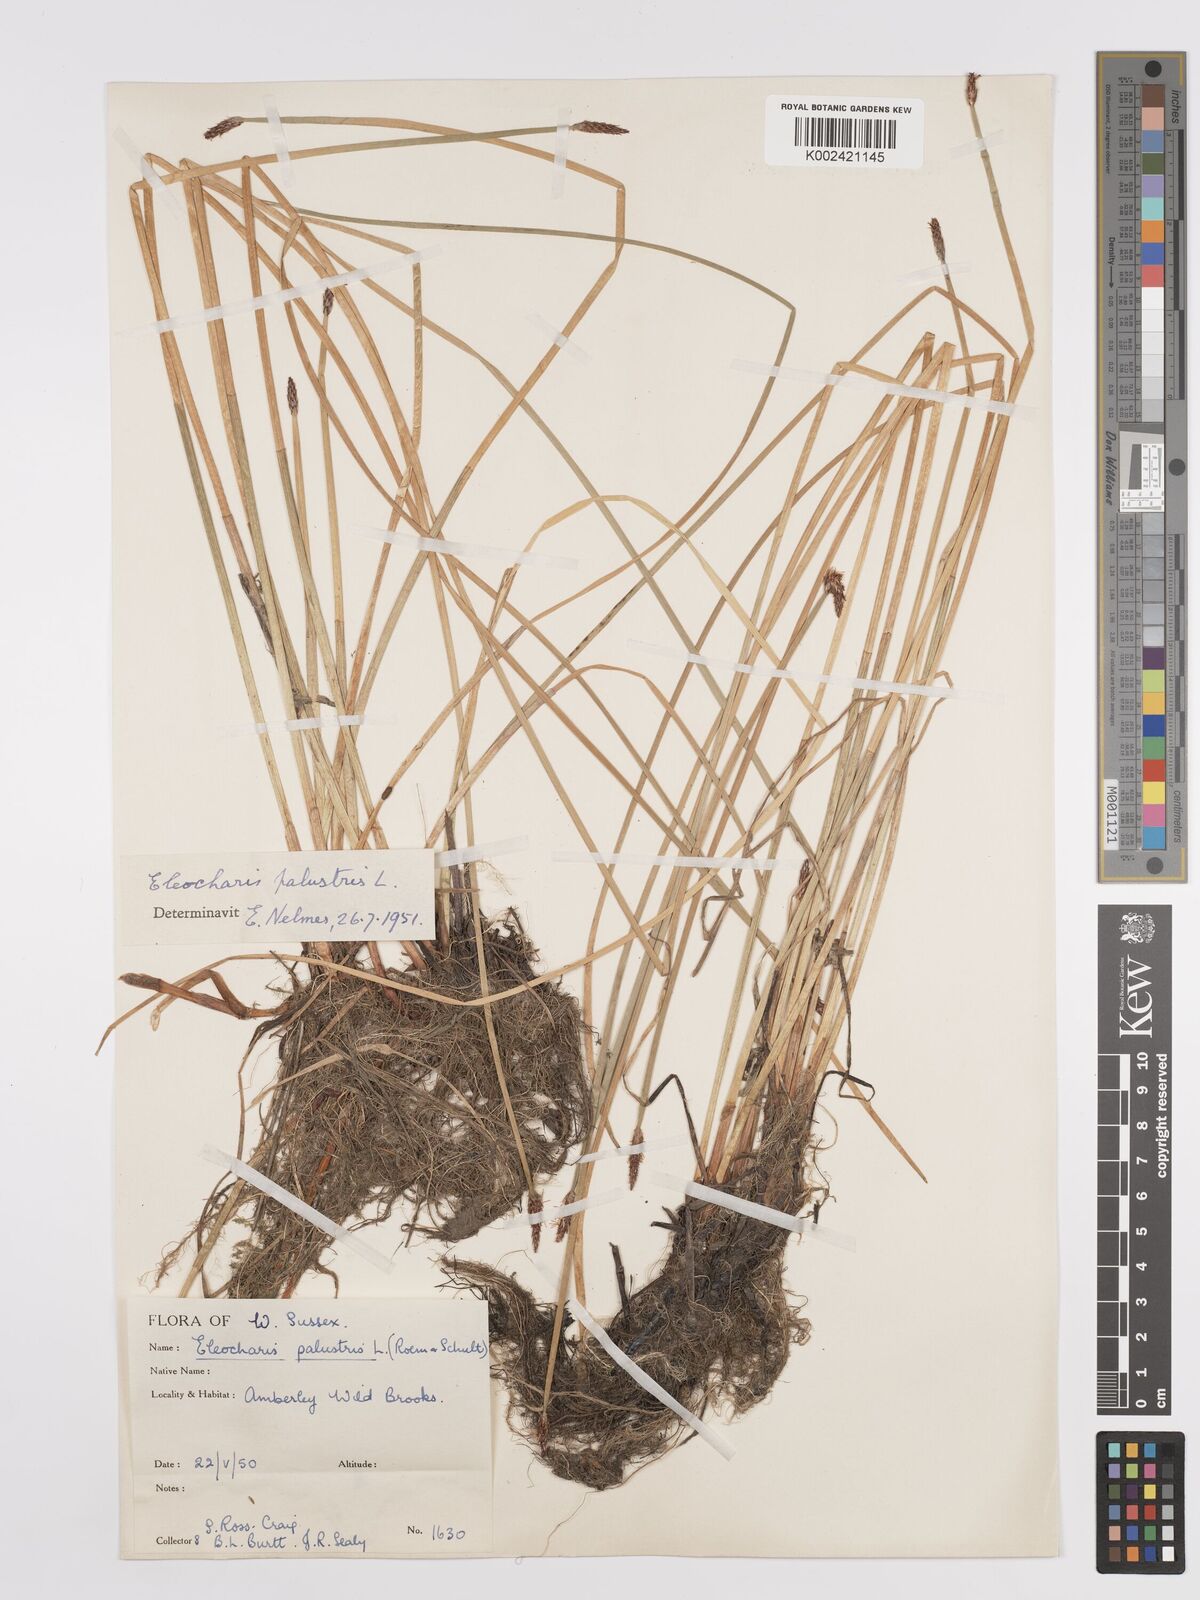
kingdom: Plantae
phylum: Tracheophyta
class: Liliopsida
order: Poales
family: Cyperaceae
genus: Eleocharis
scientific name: Eleocharis palustris
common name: Common spike-rush
